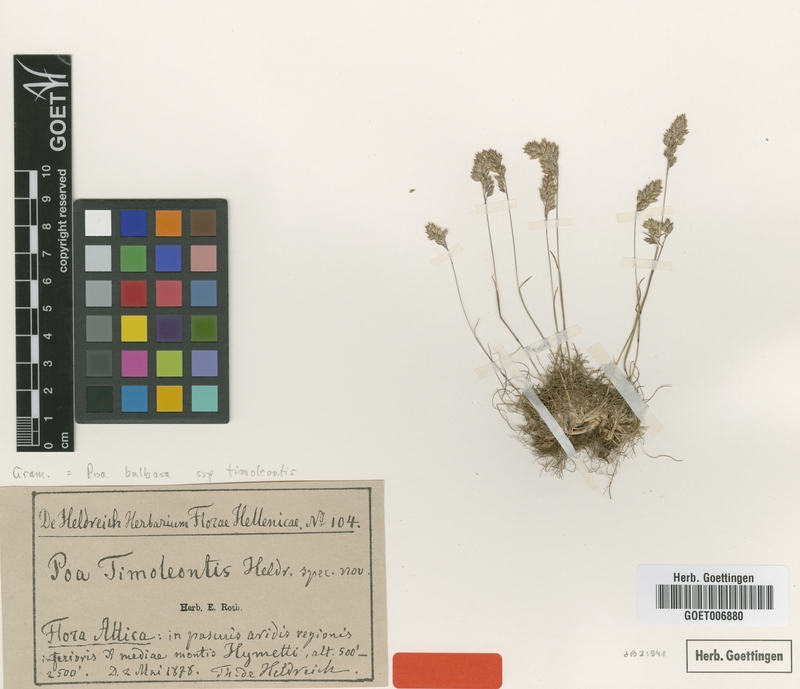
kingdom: Plantae
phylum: Tracheophyta
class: Liliopsida
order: Poales
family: Poaceae
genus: Poa
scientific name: Poa timoleontis
